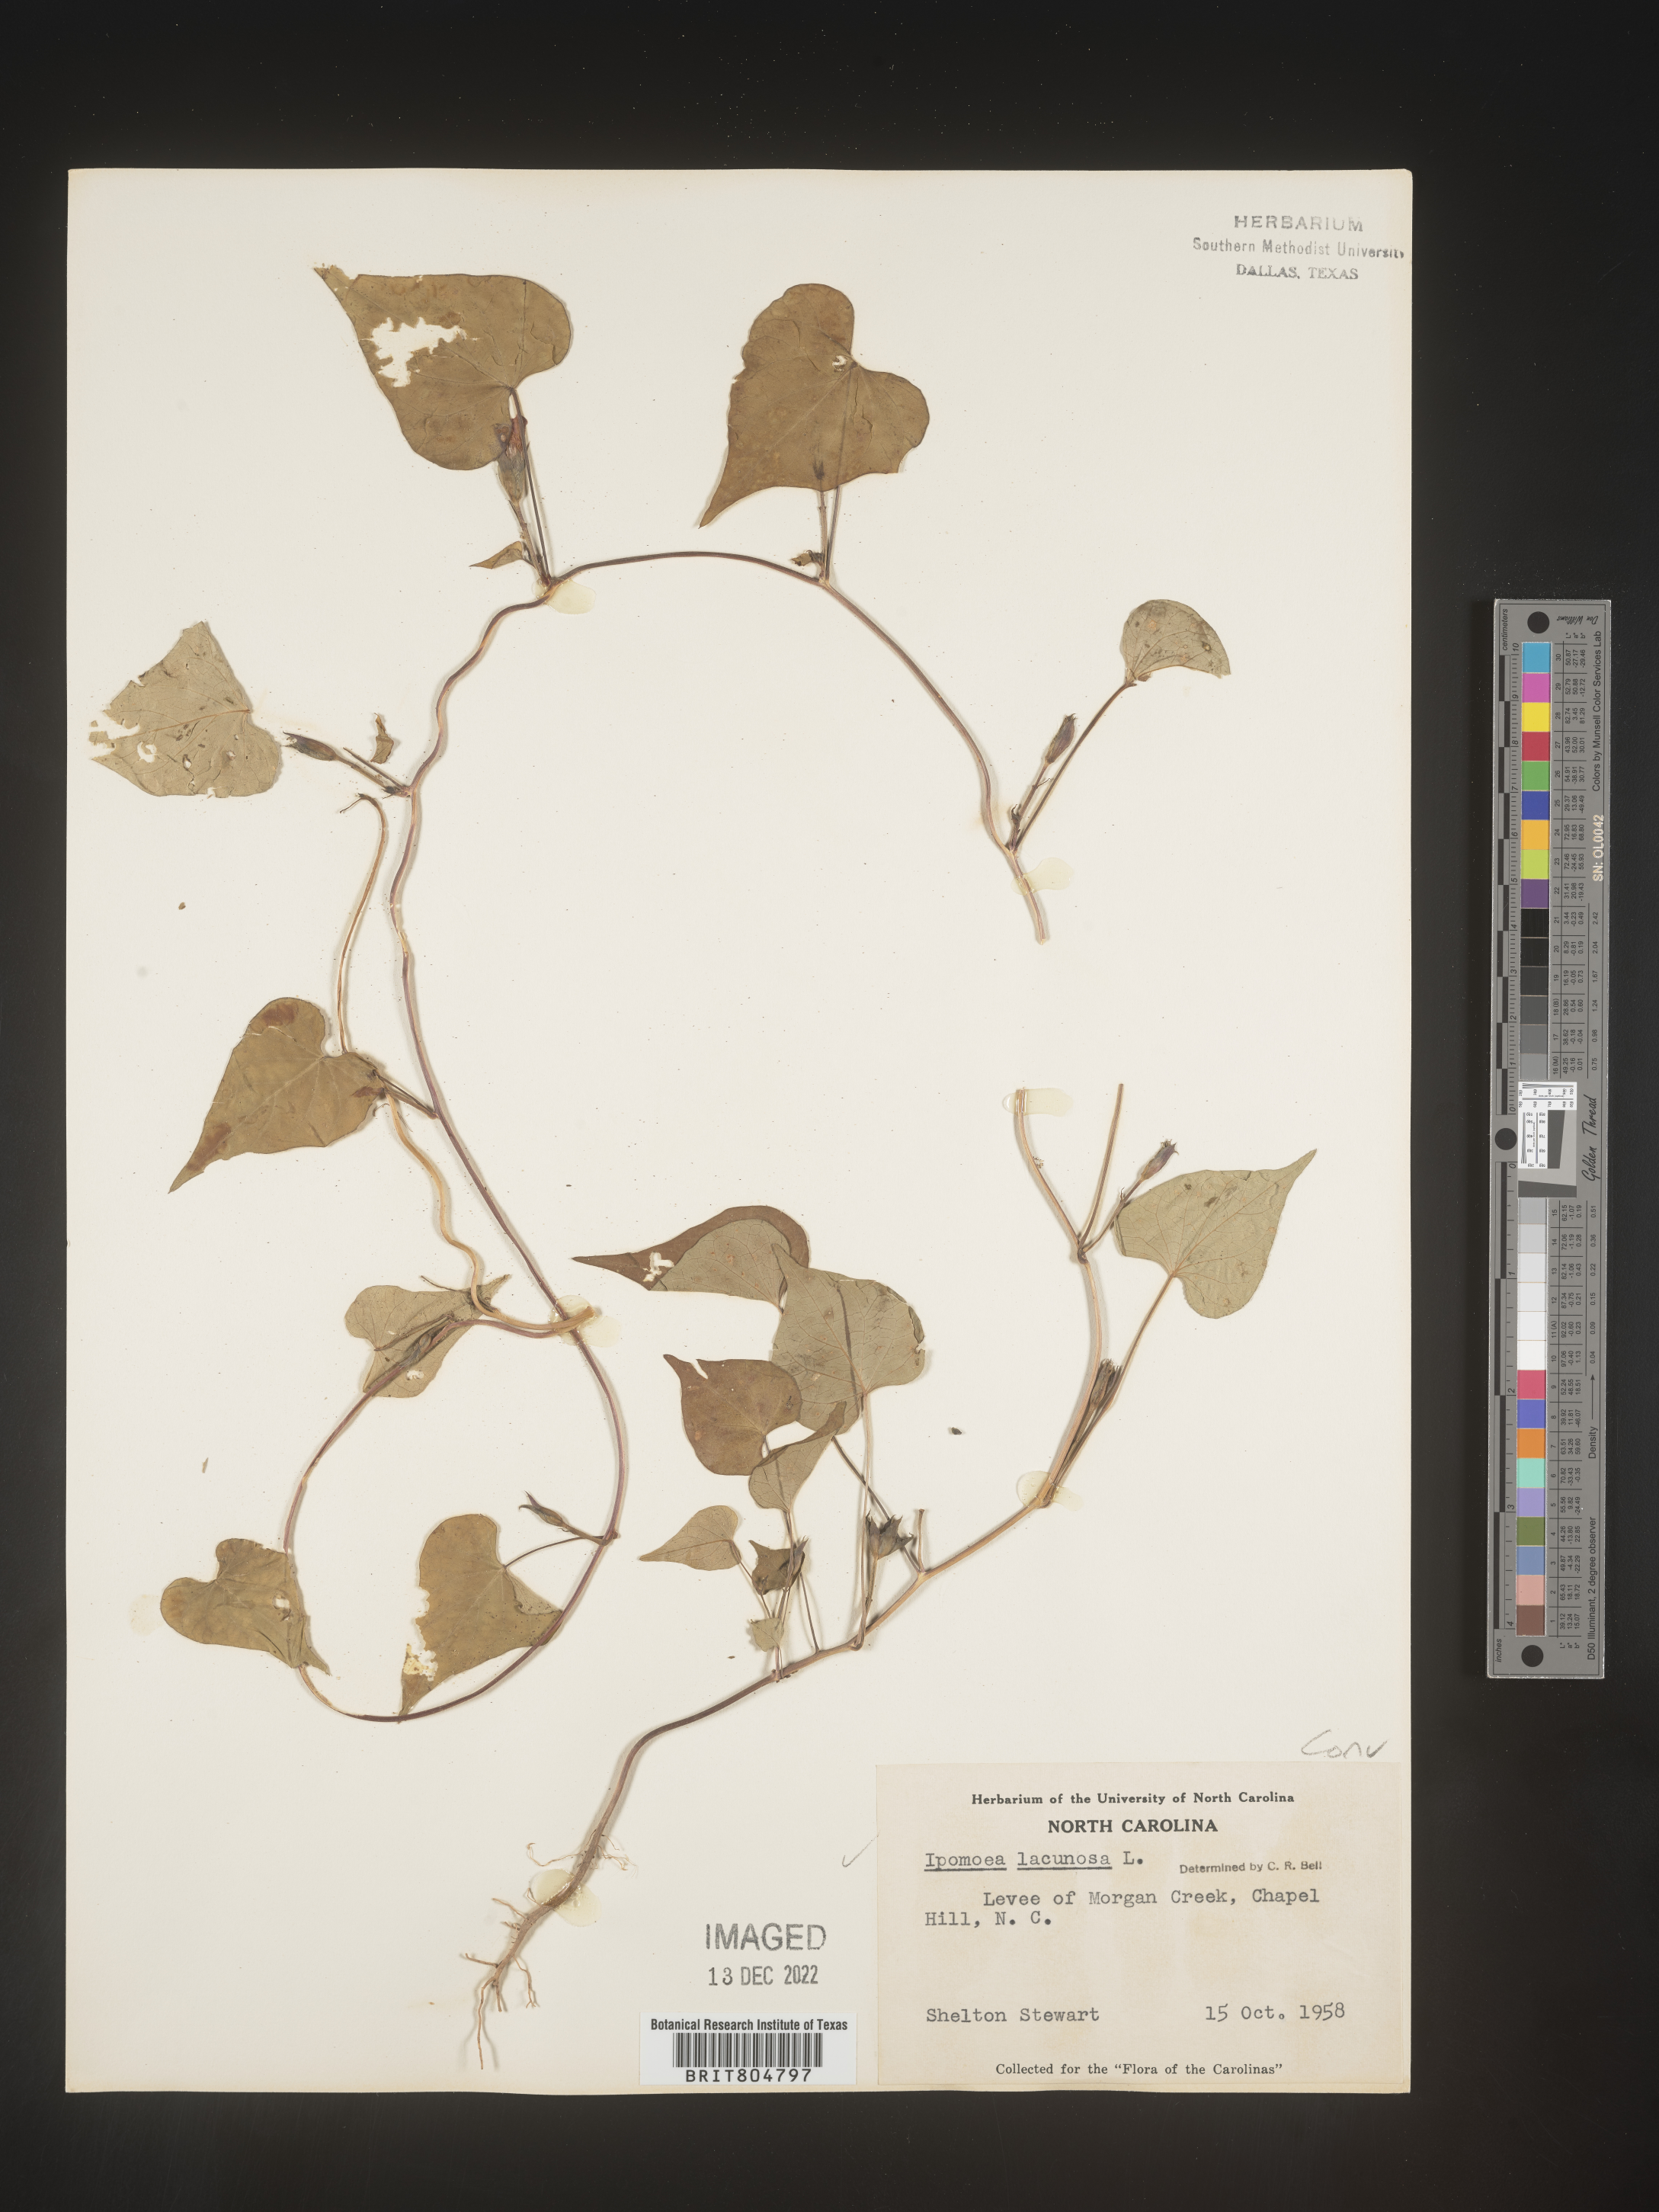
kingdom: Plantae
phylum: Tracheophyta
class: Magnoliopsida
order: Solanales
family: Convolvulaceae
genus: Ipomoea
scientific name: Ipomoea lacunosa
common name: White morning-glory
